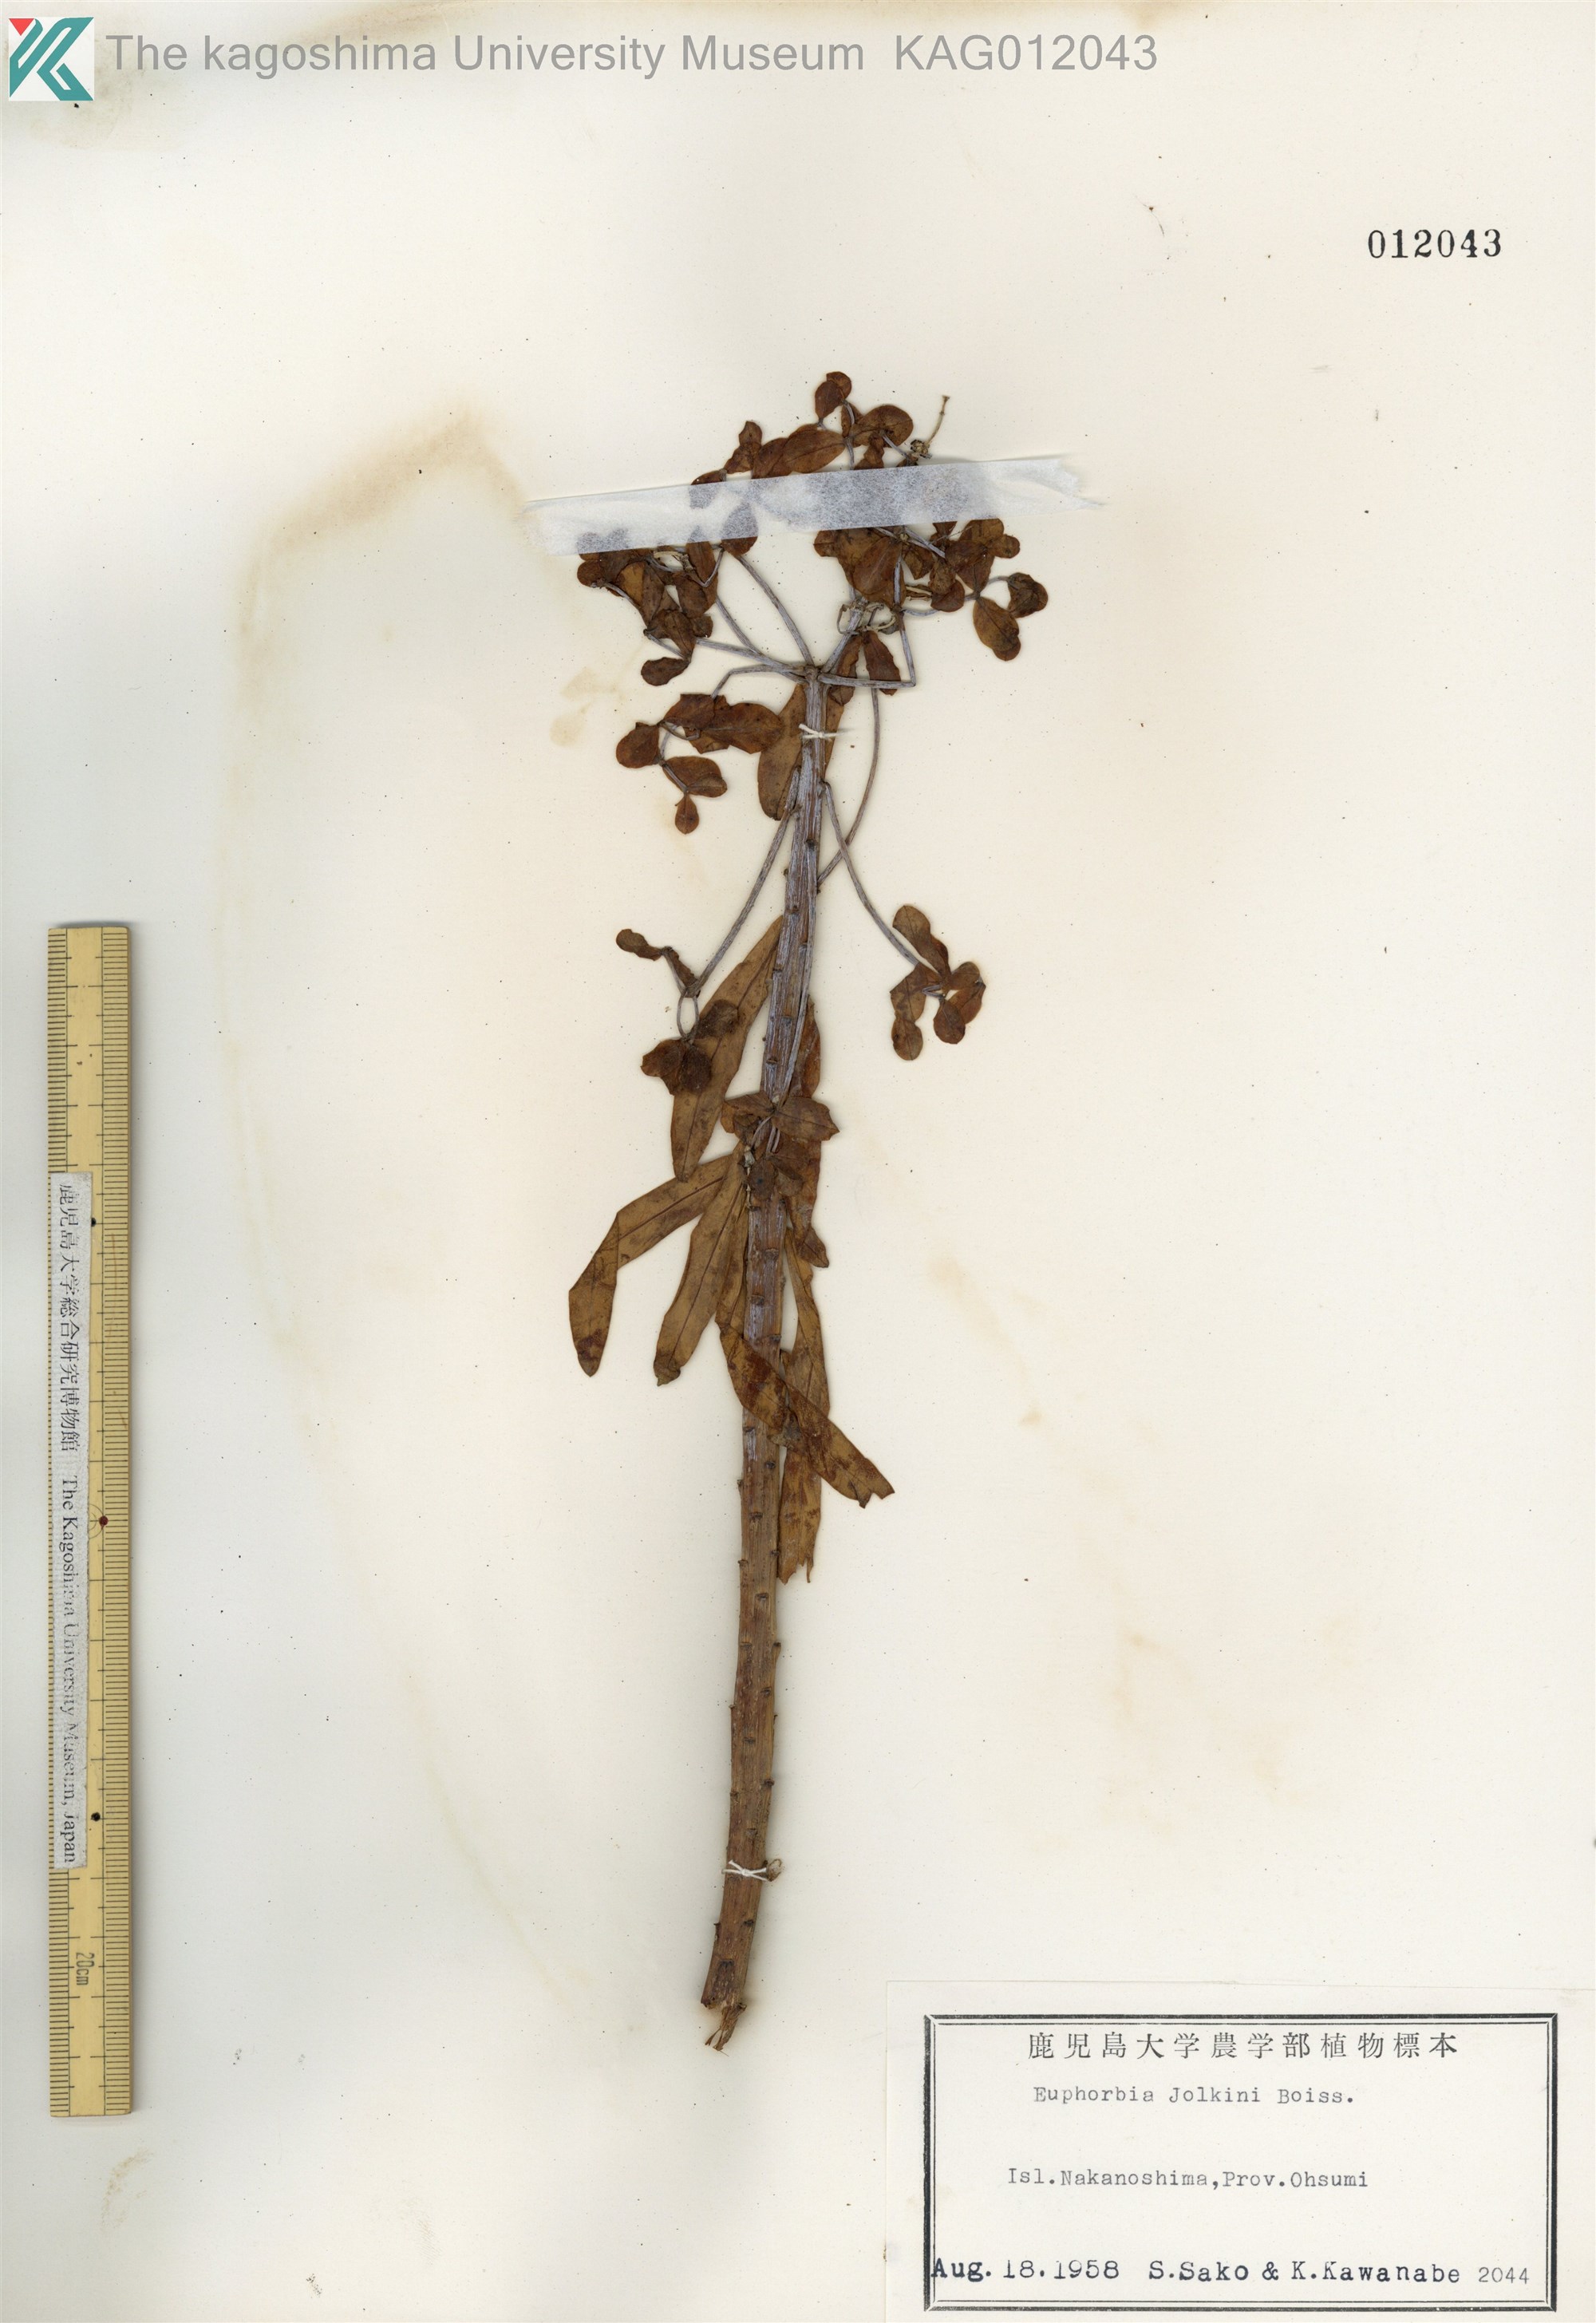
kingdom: Plantae
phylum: Tracheophyta
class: Magnoliopsida
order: Malpighiales
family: Euphorbiaceae
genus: Euphorbia
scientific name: Euphorbia jolkinii
